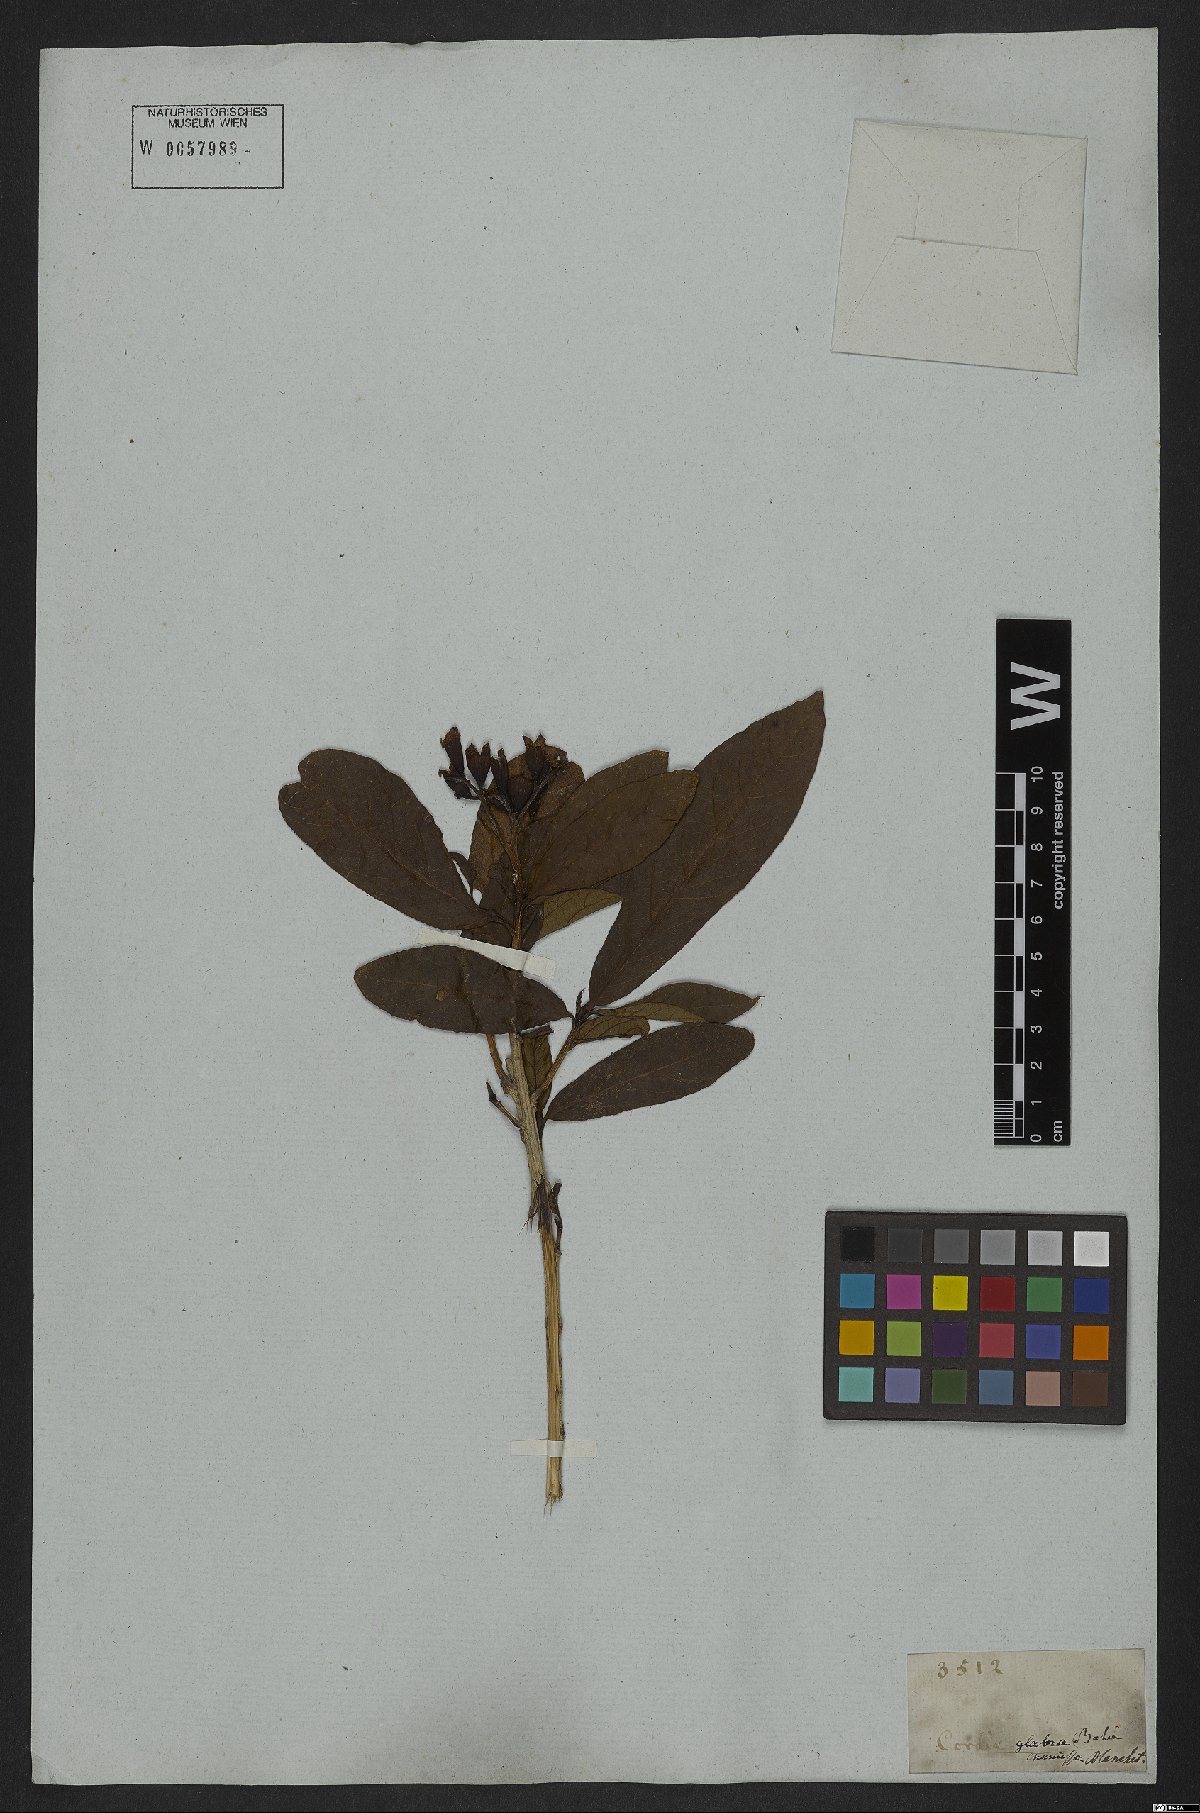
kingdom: Plantae
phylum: Tracheophyta
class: Magnoliopsida
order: Boraginales
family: Cordiaceae
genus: Cordia
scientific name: Cordia glabra
